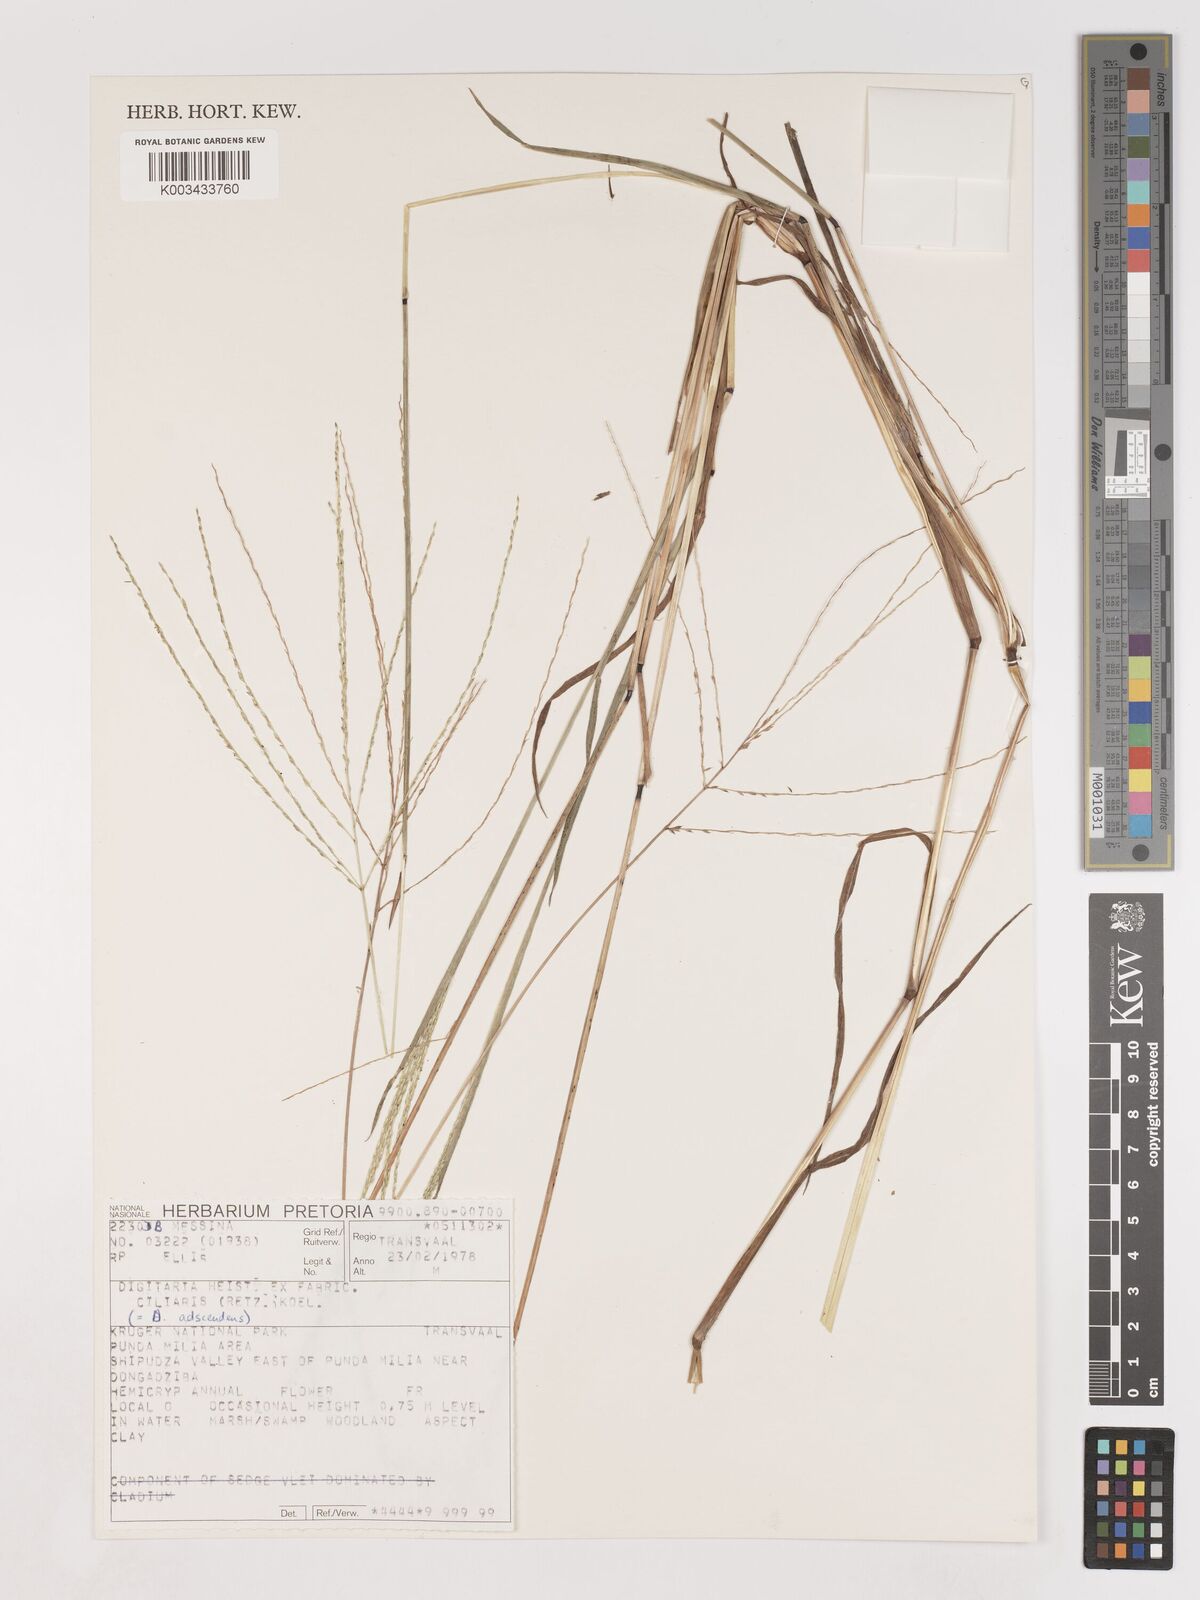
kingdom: Plantae
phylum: Tracheophyta
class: Liliopsida
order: Poales
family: Poaceae
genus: Digitaria
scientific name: Digitaria ciliaris
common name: Tropical finger-grass
